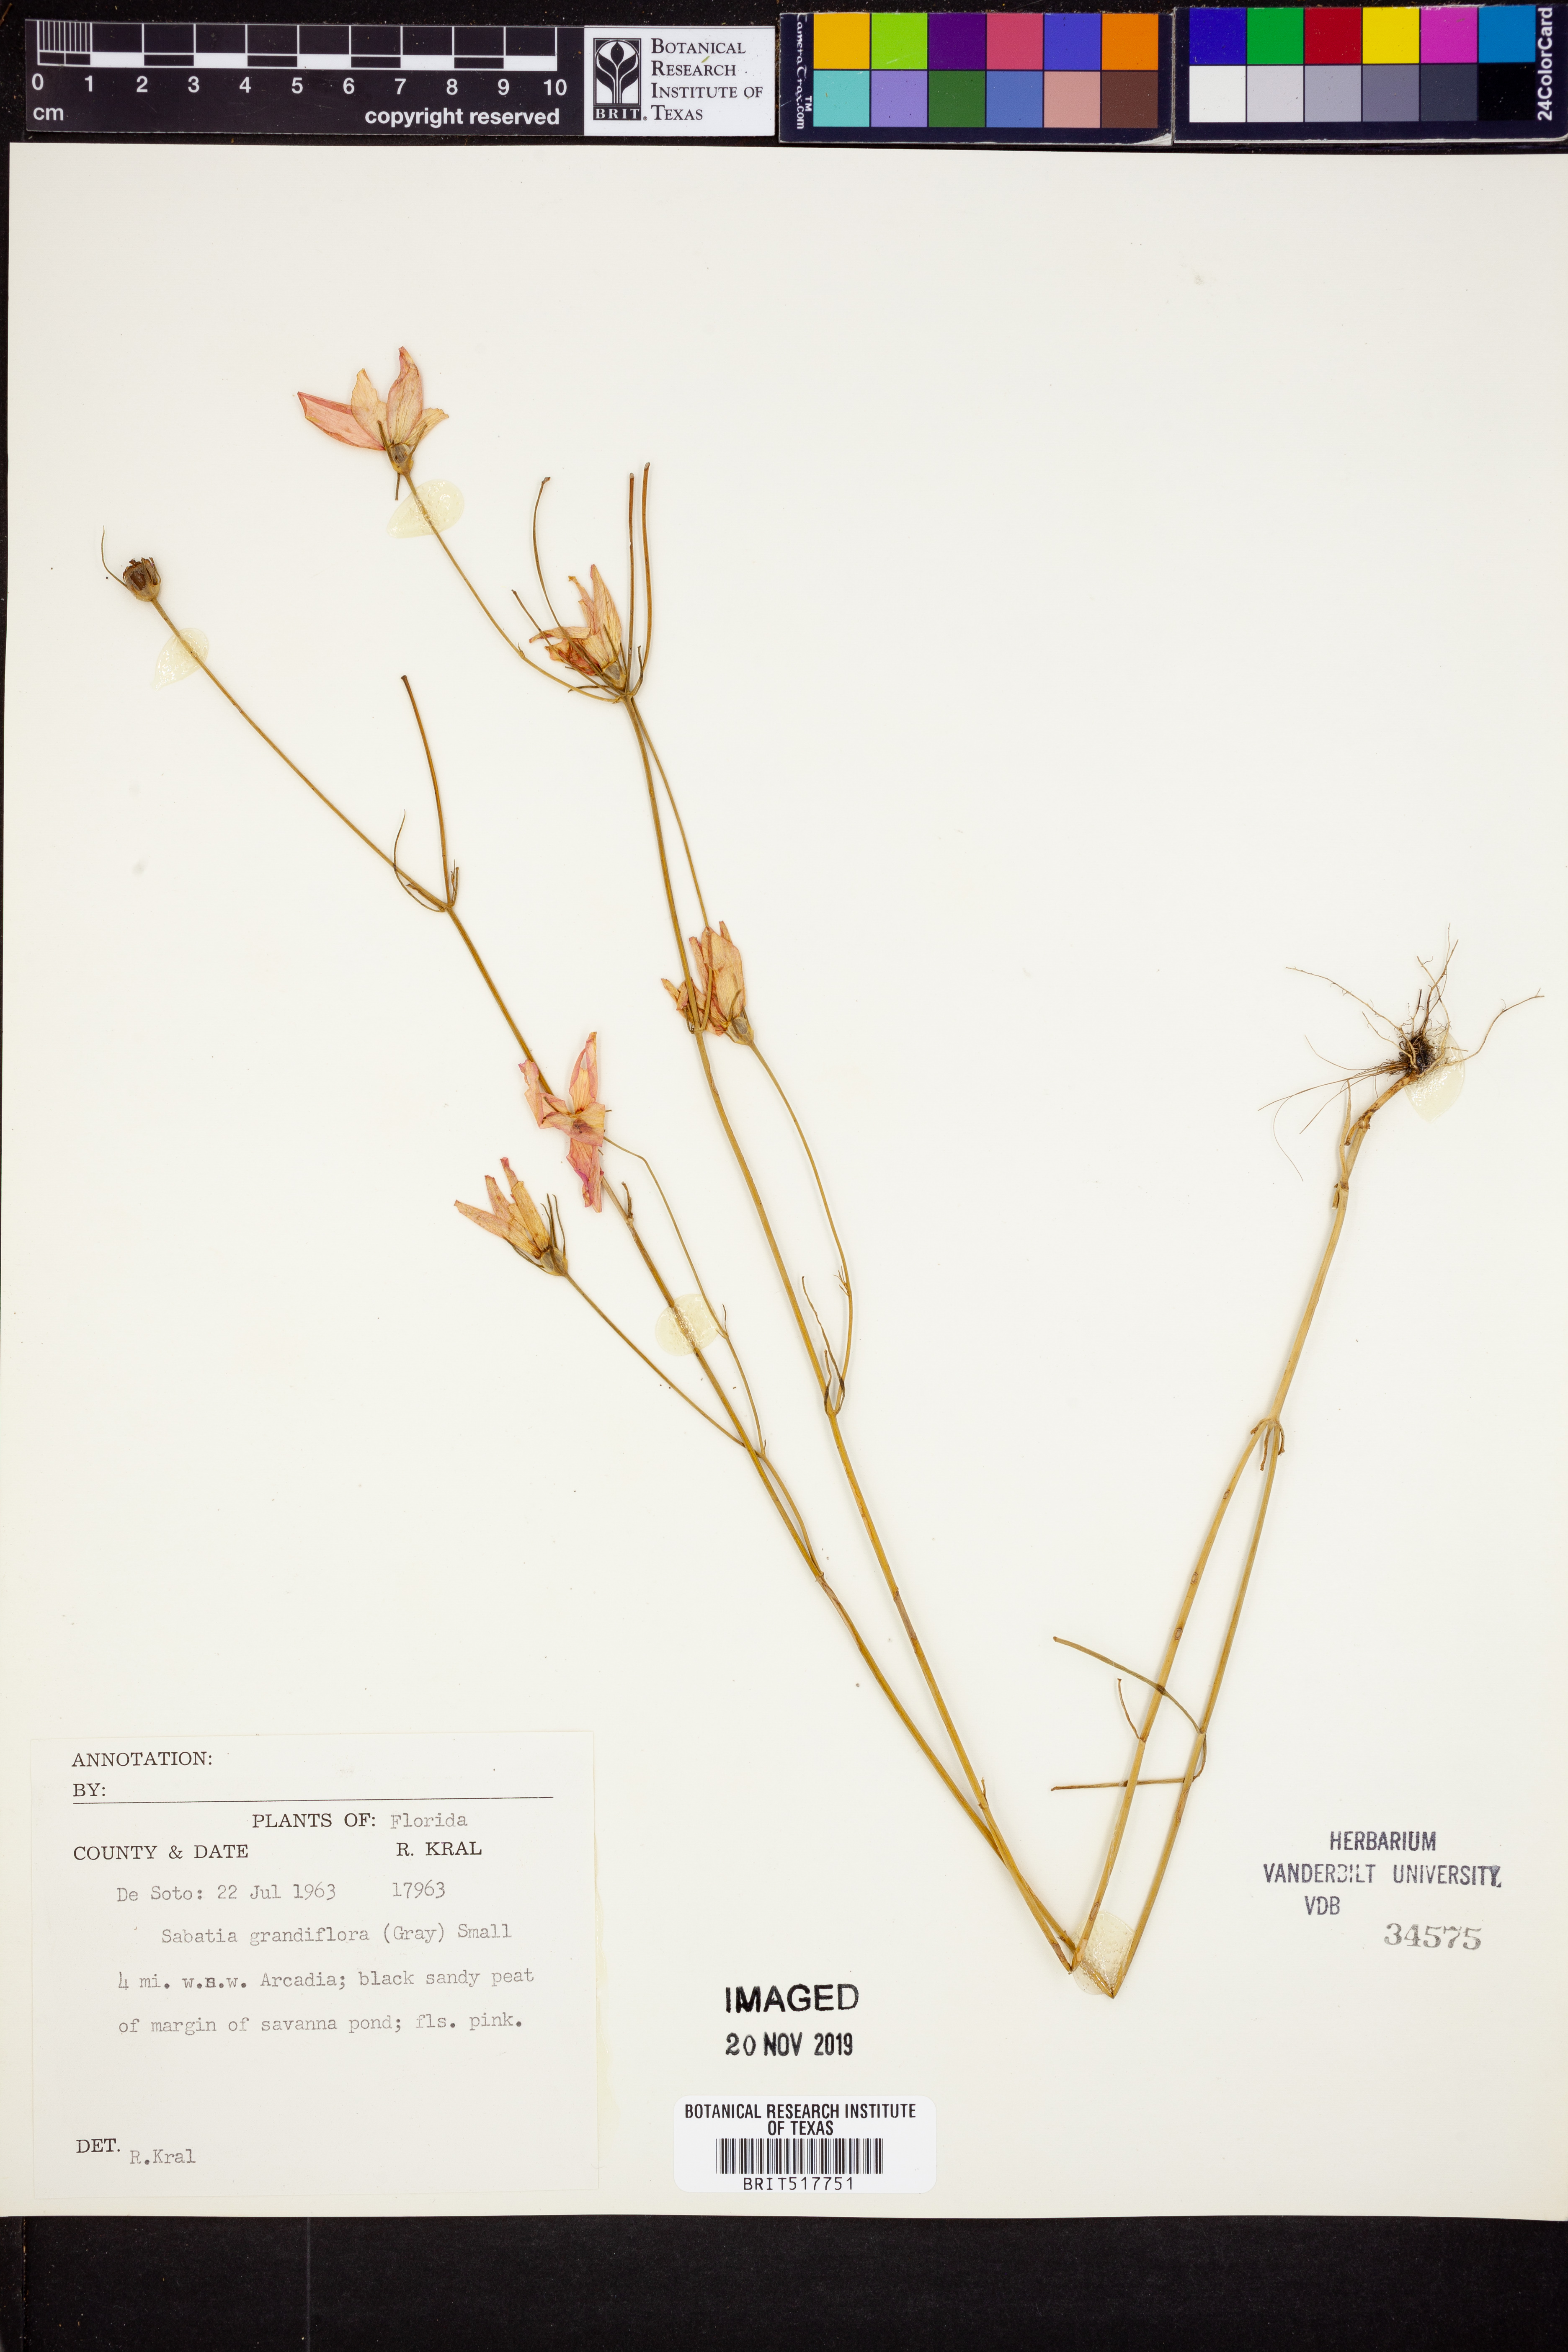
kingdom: Plantae
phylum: Tracheophyta
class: Magnoliopsida
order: Gentianales
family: Gentianaceae
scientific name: Gentianaceae
